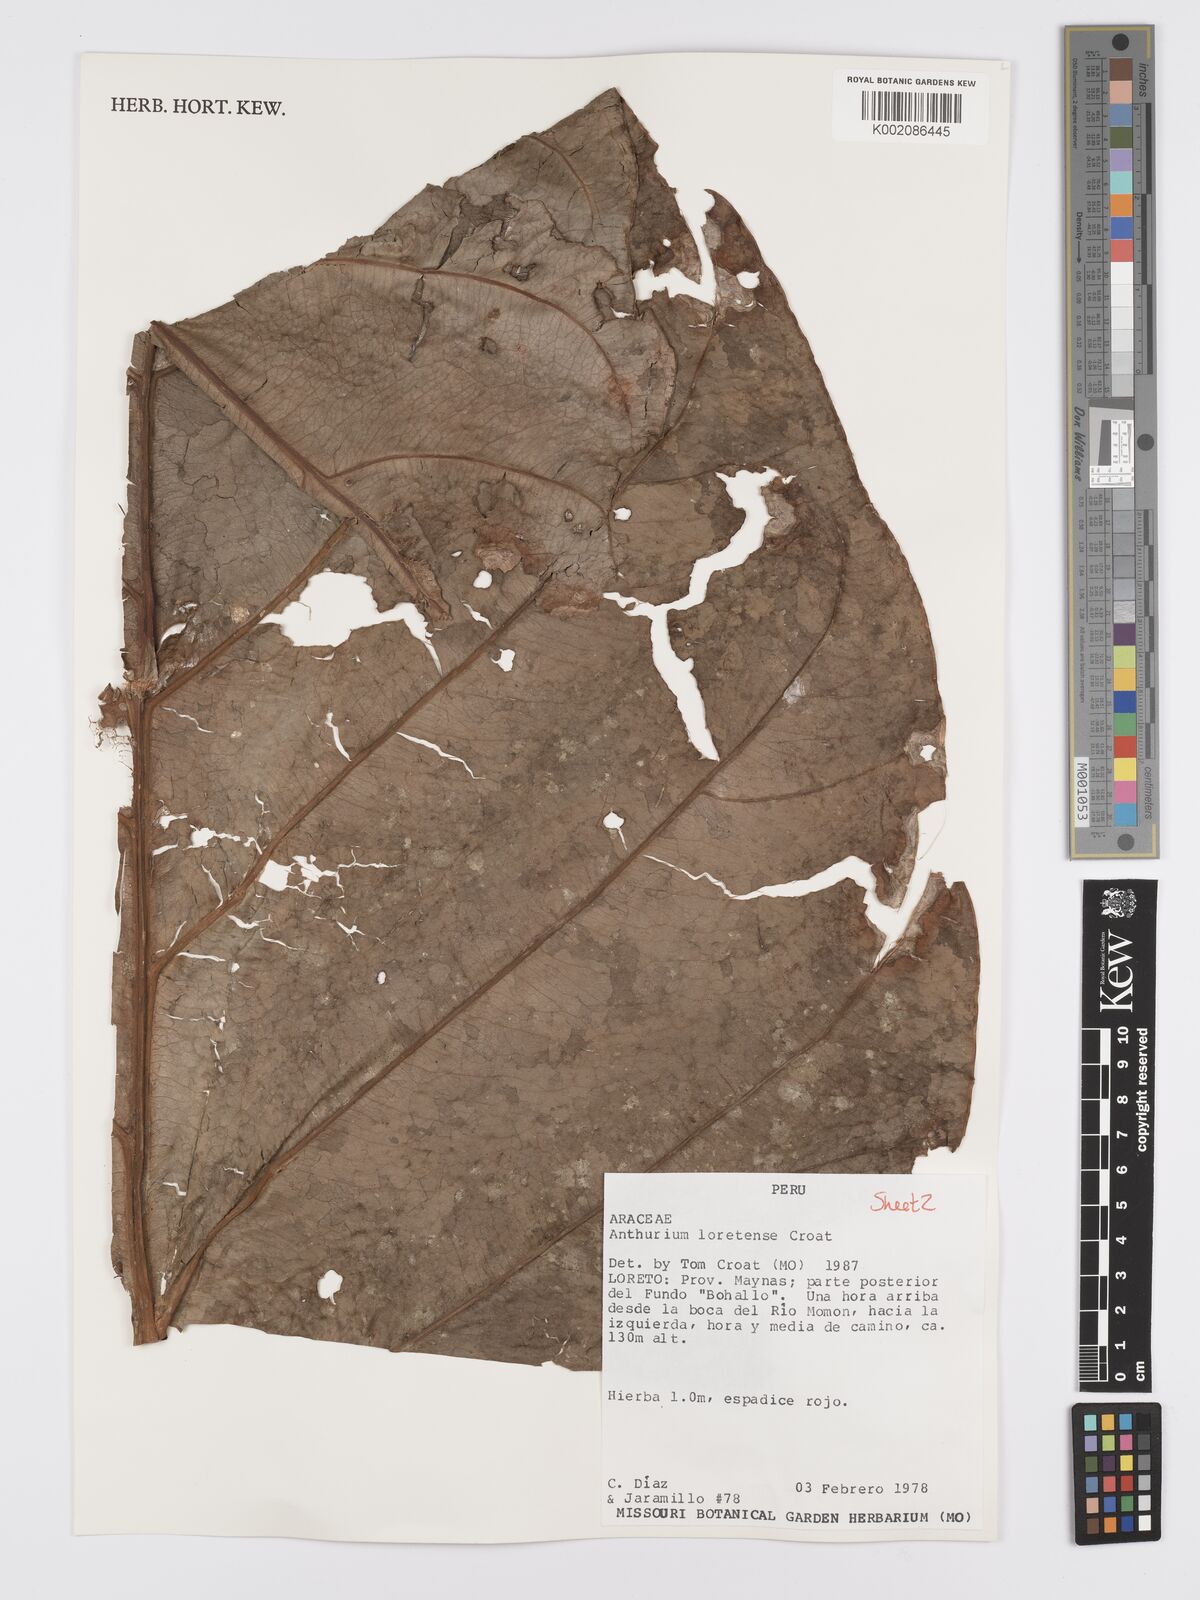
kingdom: Plantae
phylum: Tracheophyta
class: Liliopsida
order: Alismatales
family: Araceae
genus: Anthurium
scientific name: Anthurium loretense
